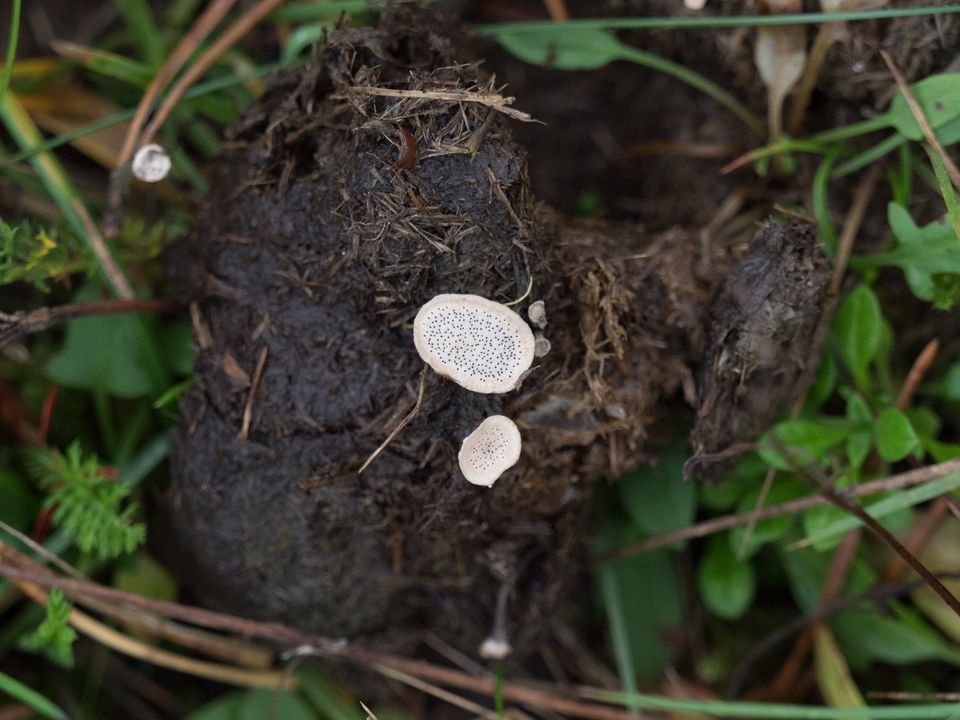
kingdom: Fungi
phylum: Ascomycota
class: Sordariomycetes
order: Xylariales
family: Xylariaceae
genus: Poronia
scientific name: Poronia punctata
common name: stor priksvamp
